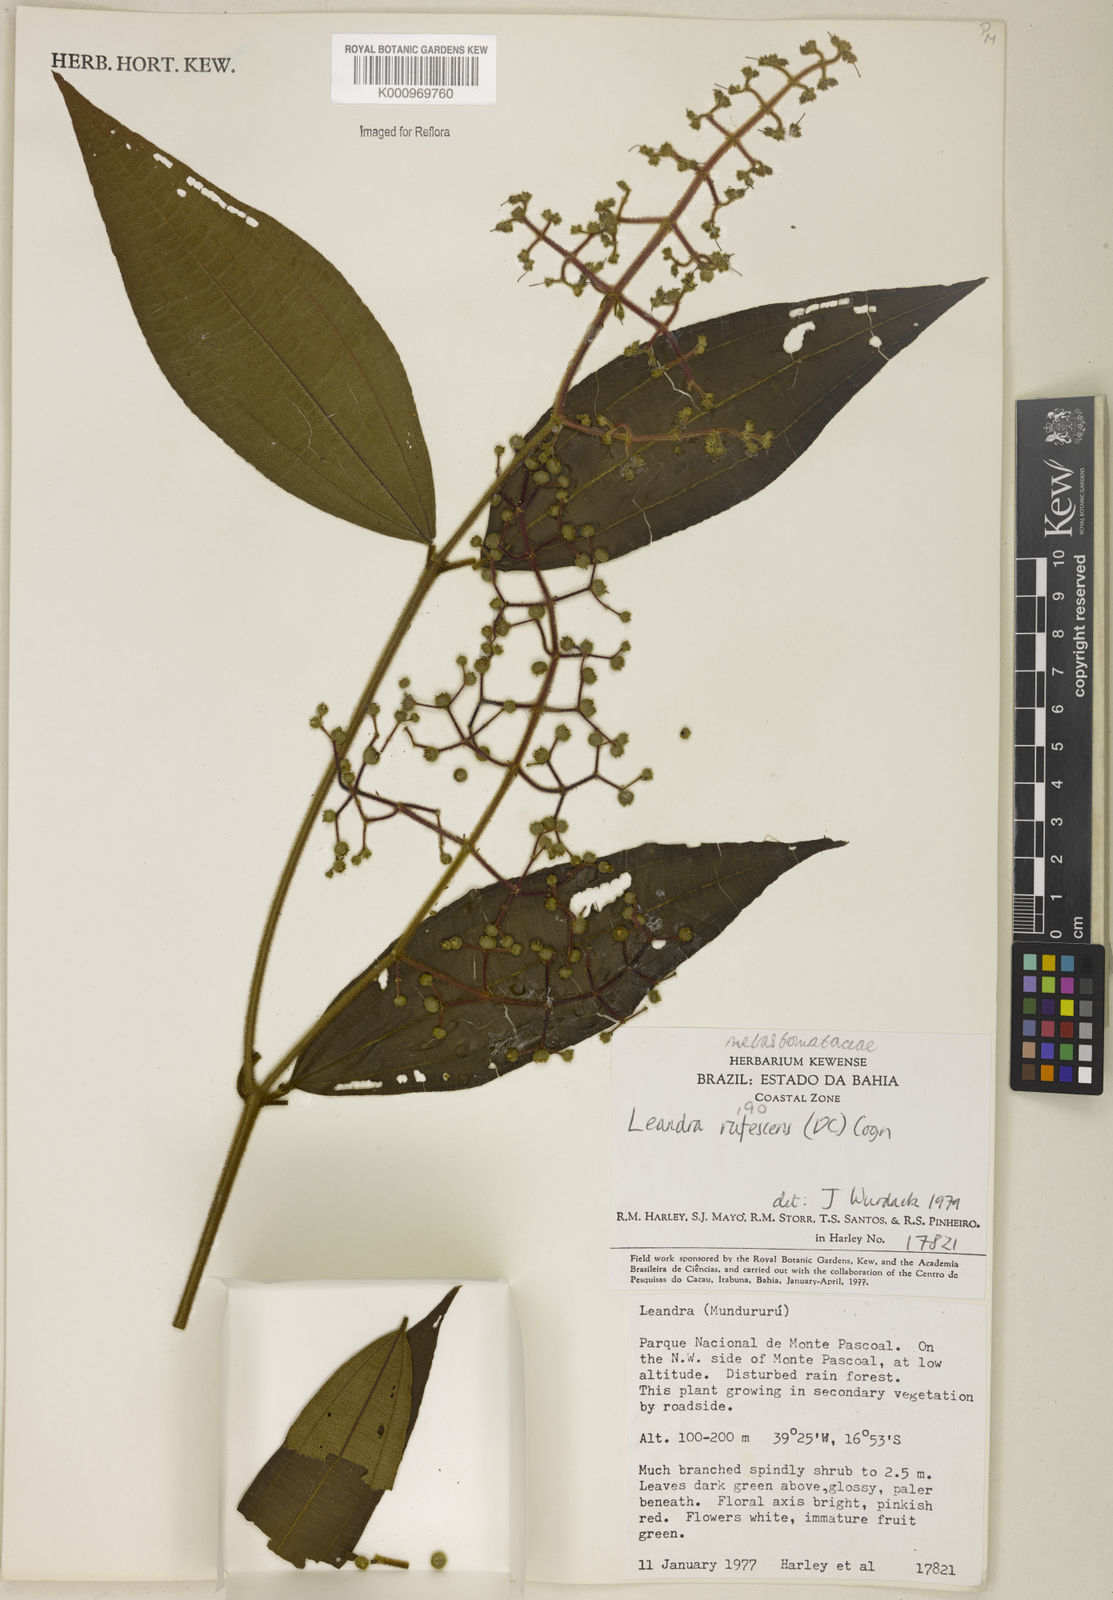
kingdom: Plantae
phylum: Tracheophyta
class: Magnoliopsida
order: Myrtales
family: Melastomataceae
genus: Miconia
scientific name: Miconia asperiuscula
